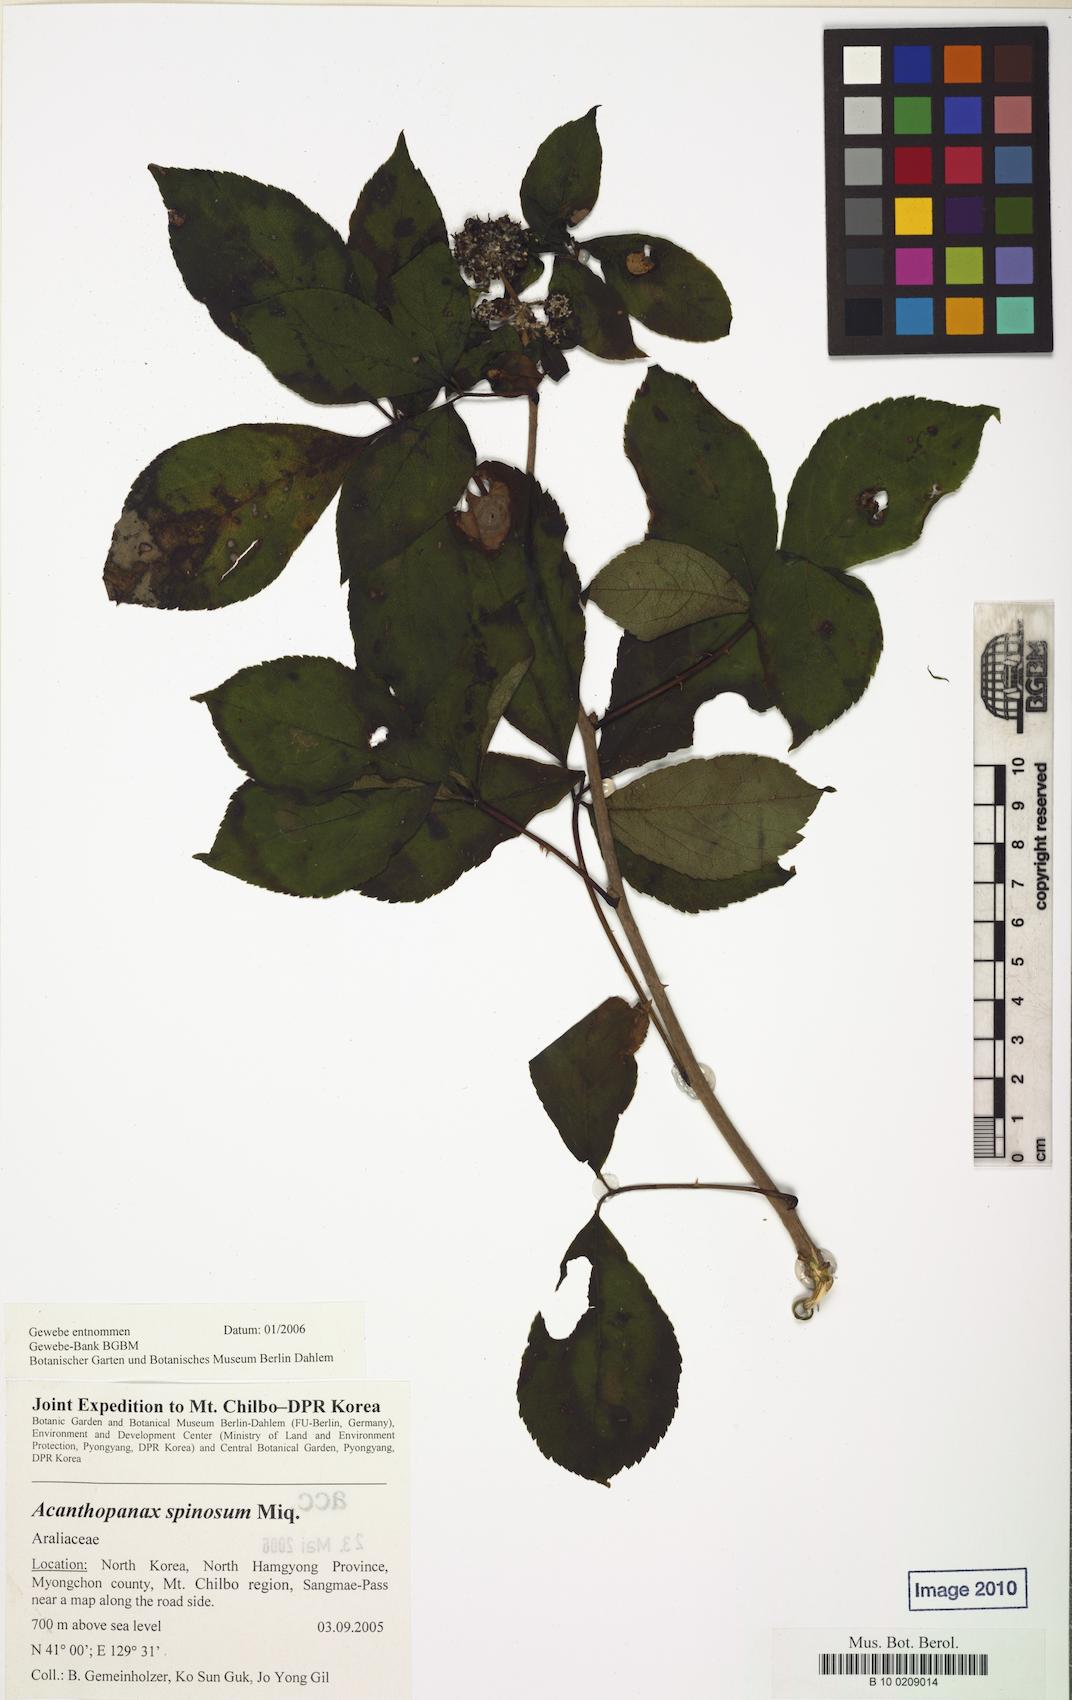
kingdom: Plantae
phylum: Tracheophyta
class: Magnoliopsida
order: Apiales
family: Araliaceae
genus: Eleutherococcus
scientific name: Eleutherococcus spinosus
